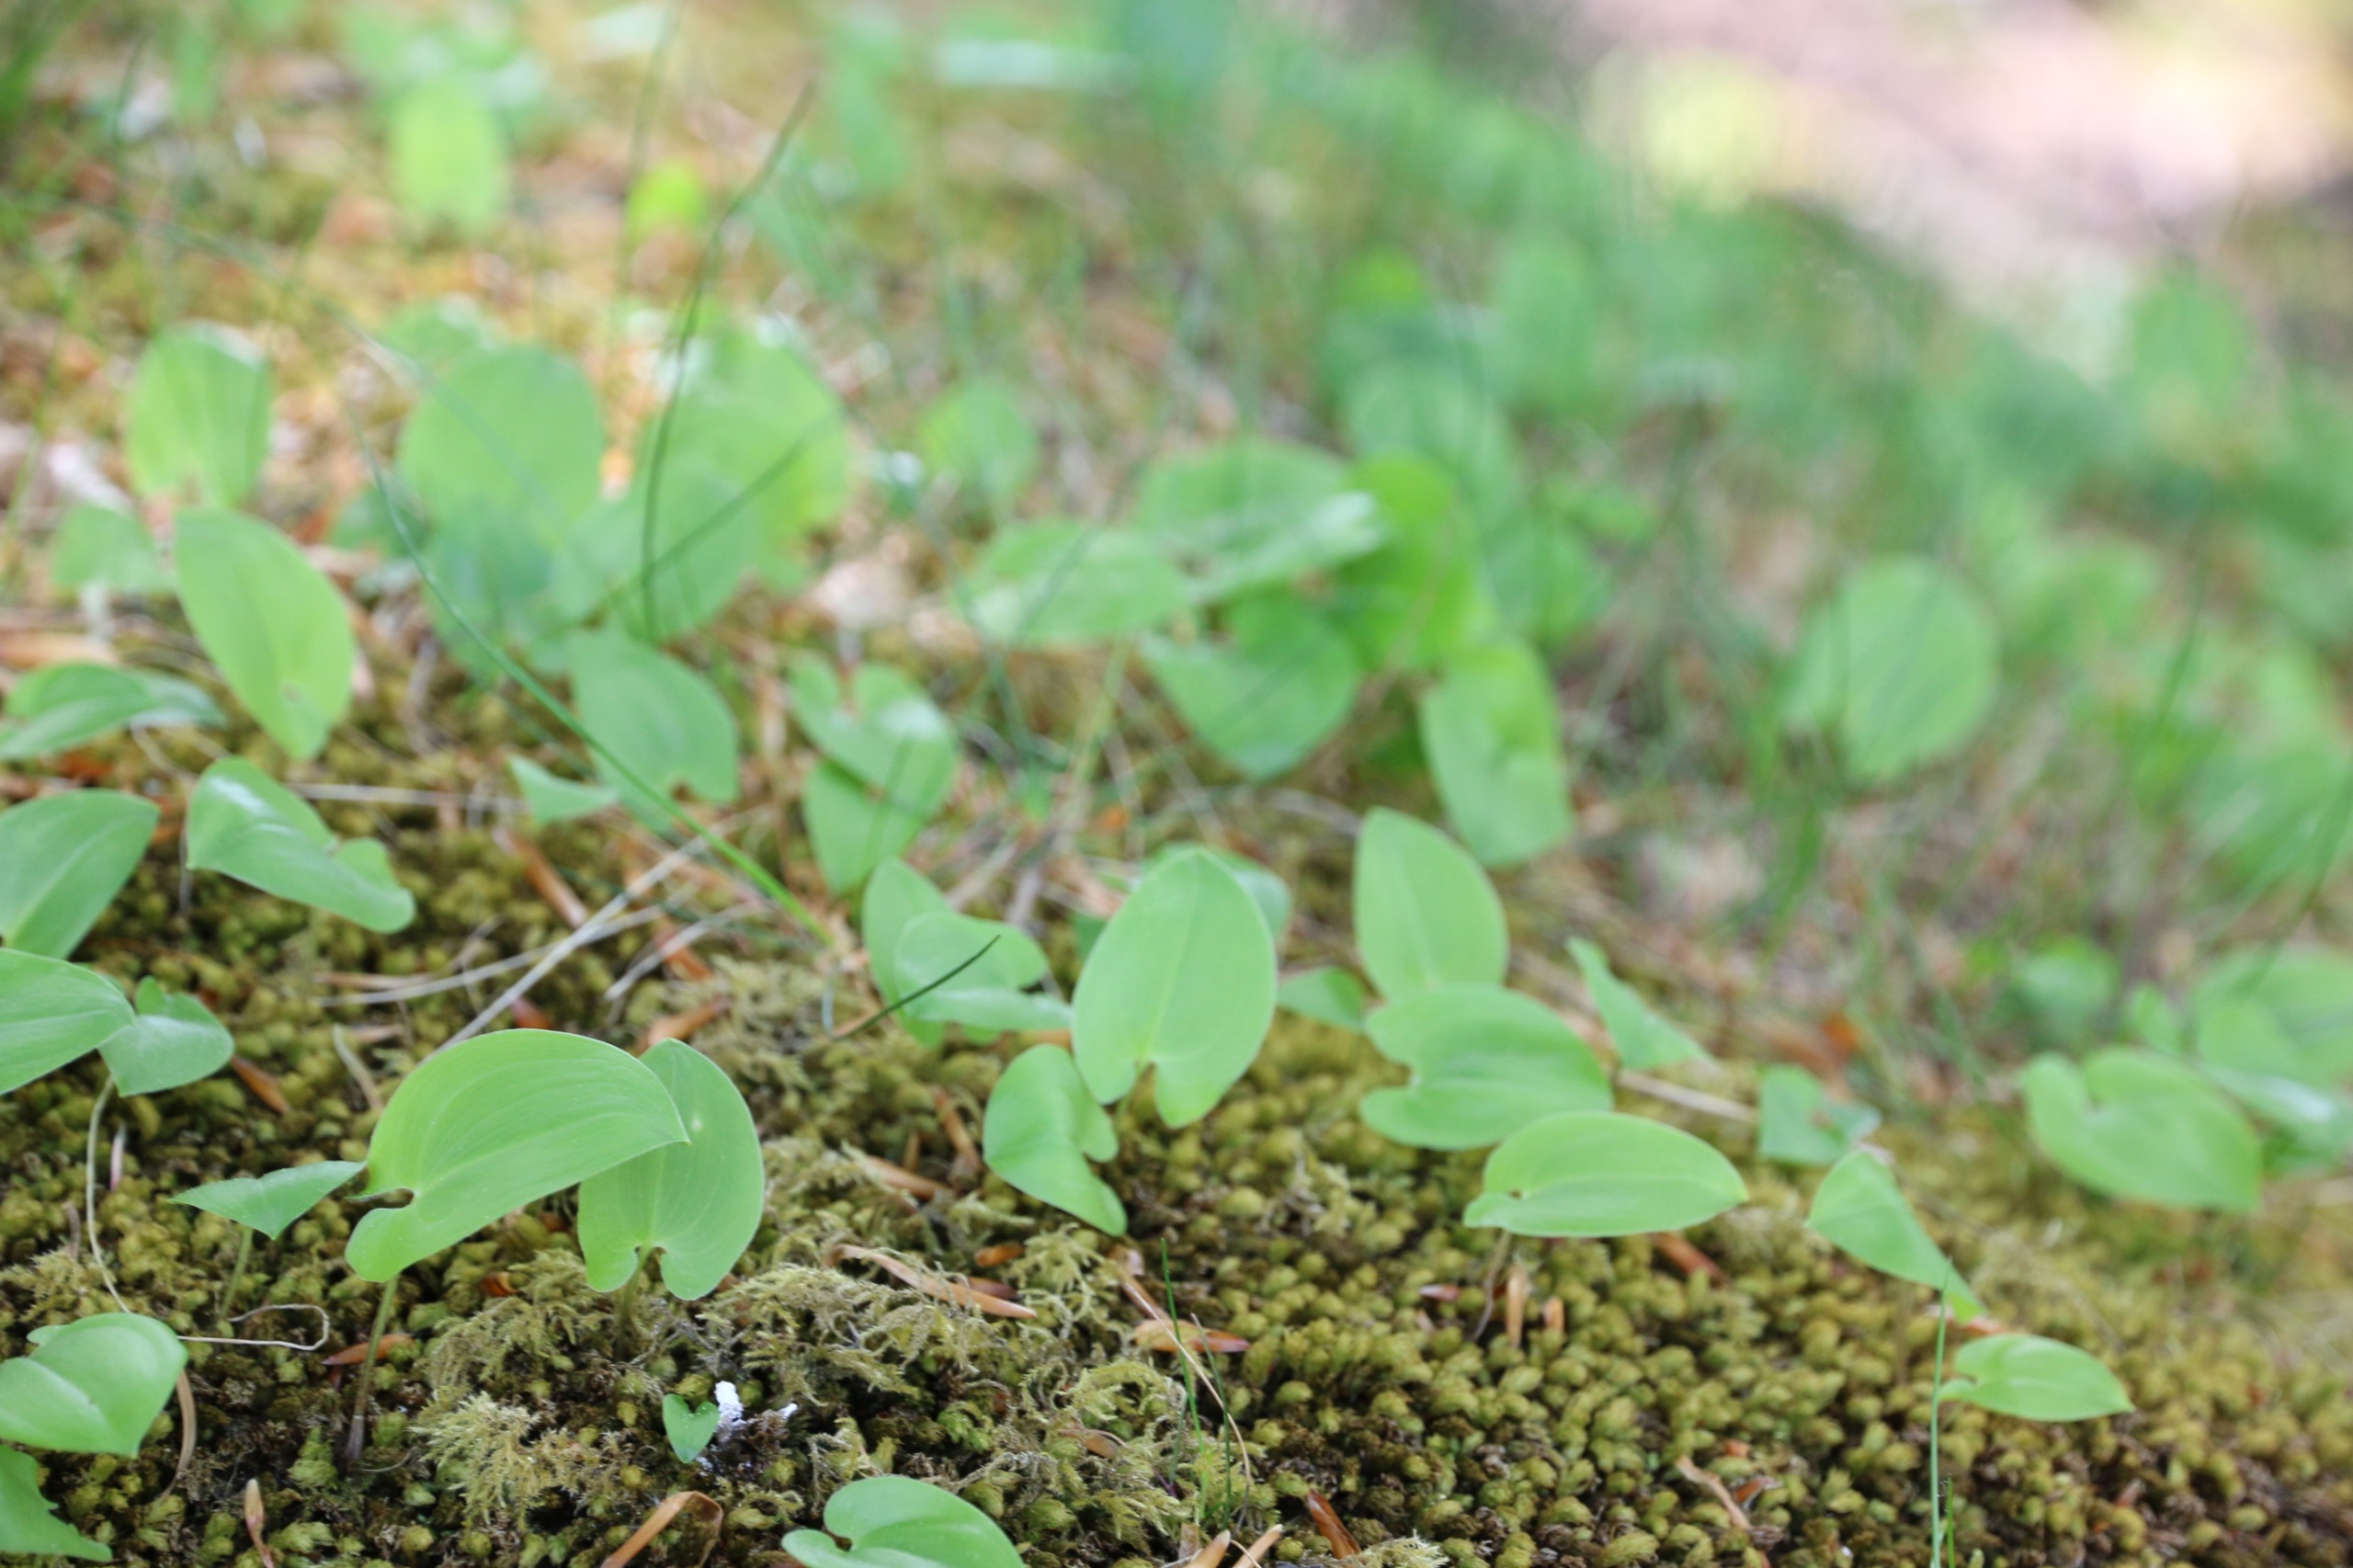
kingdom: Plantae
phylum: Tracheophyta
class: Liliopsida
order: Asparagales
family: Asparagaceae
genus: Maianthemum
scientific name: Maianthemum bifolium
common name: Majblomst
